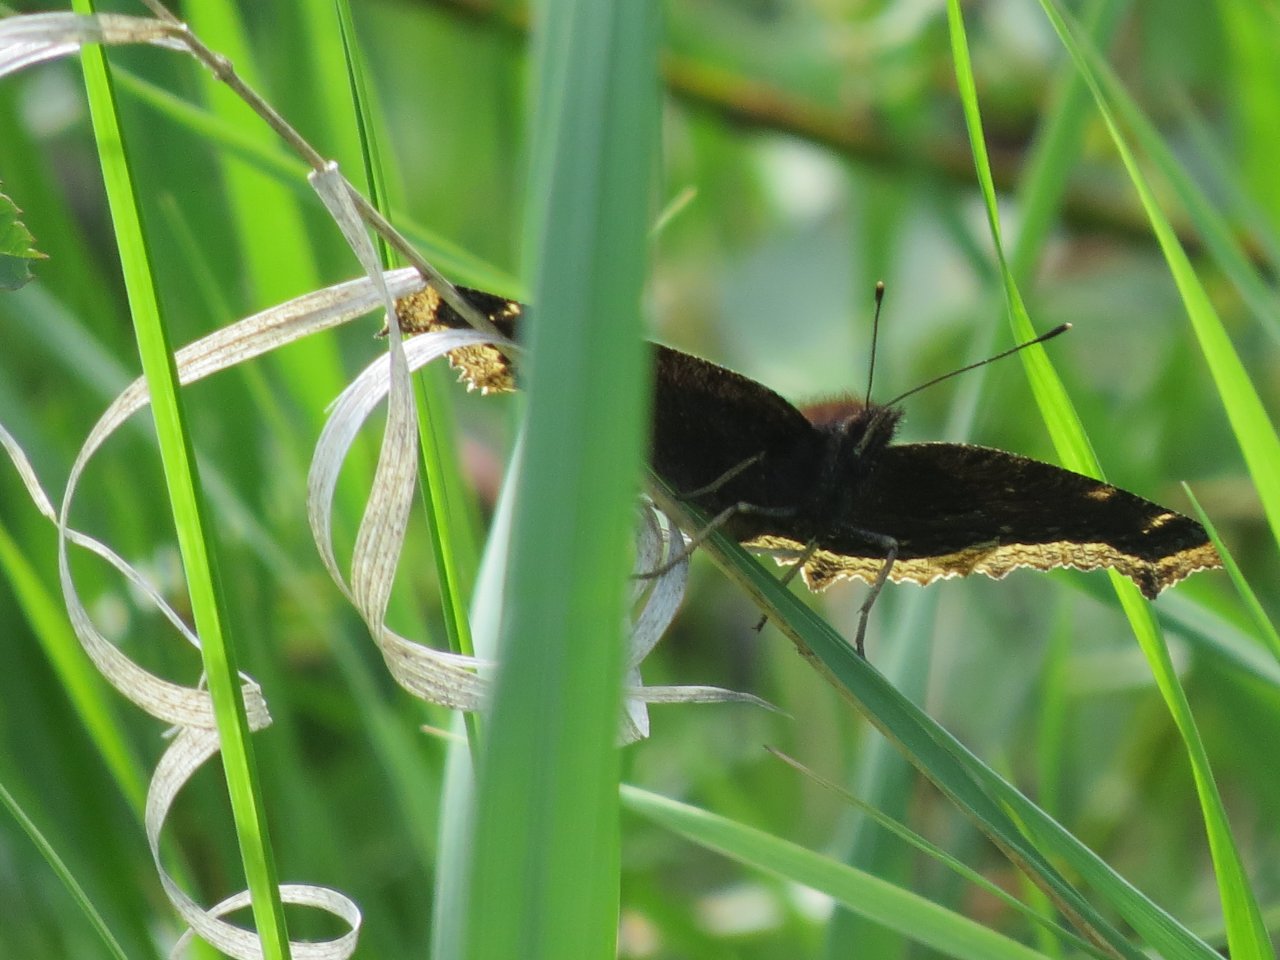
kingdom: Animalia
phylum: Arthropoda
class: Insecta
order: Lepidoptera
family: Nymphalidae
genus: Nymphalis
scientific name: Nymphalis antiopa
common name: Mourning Cloak
